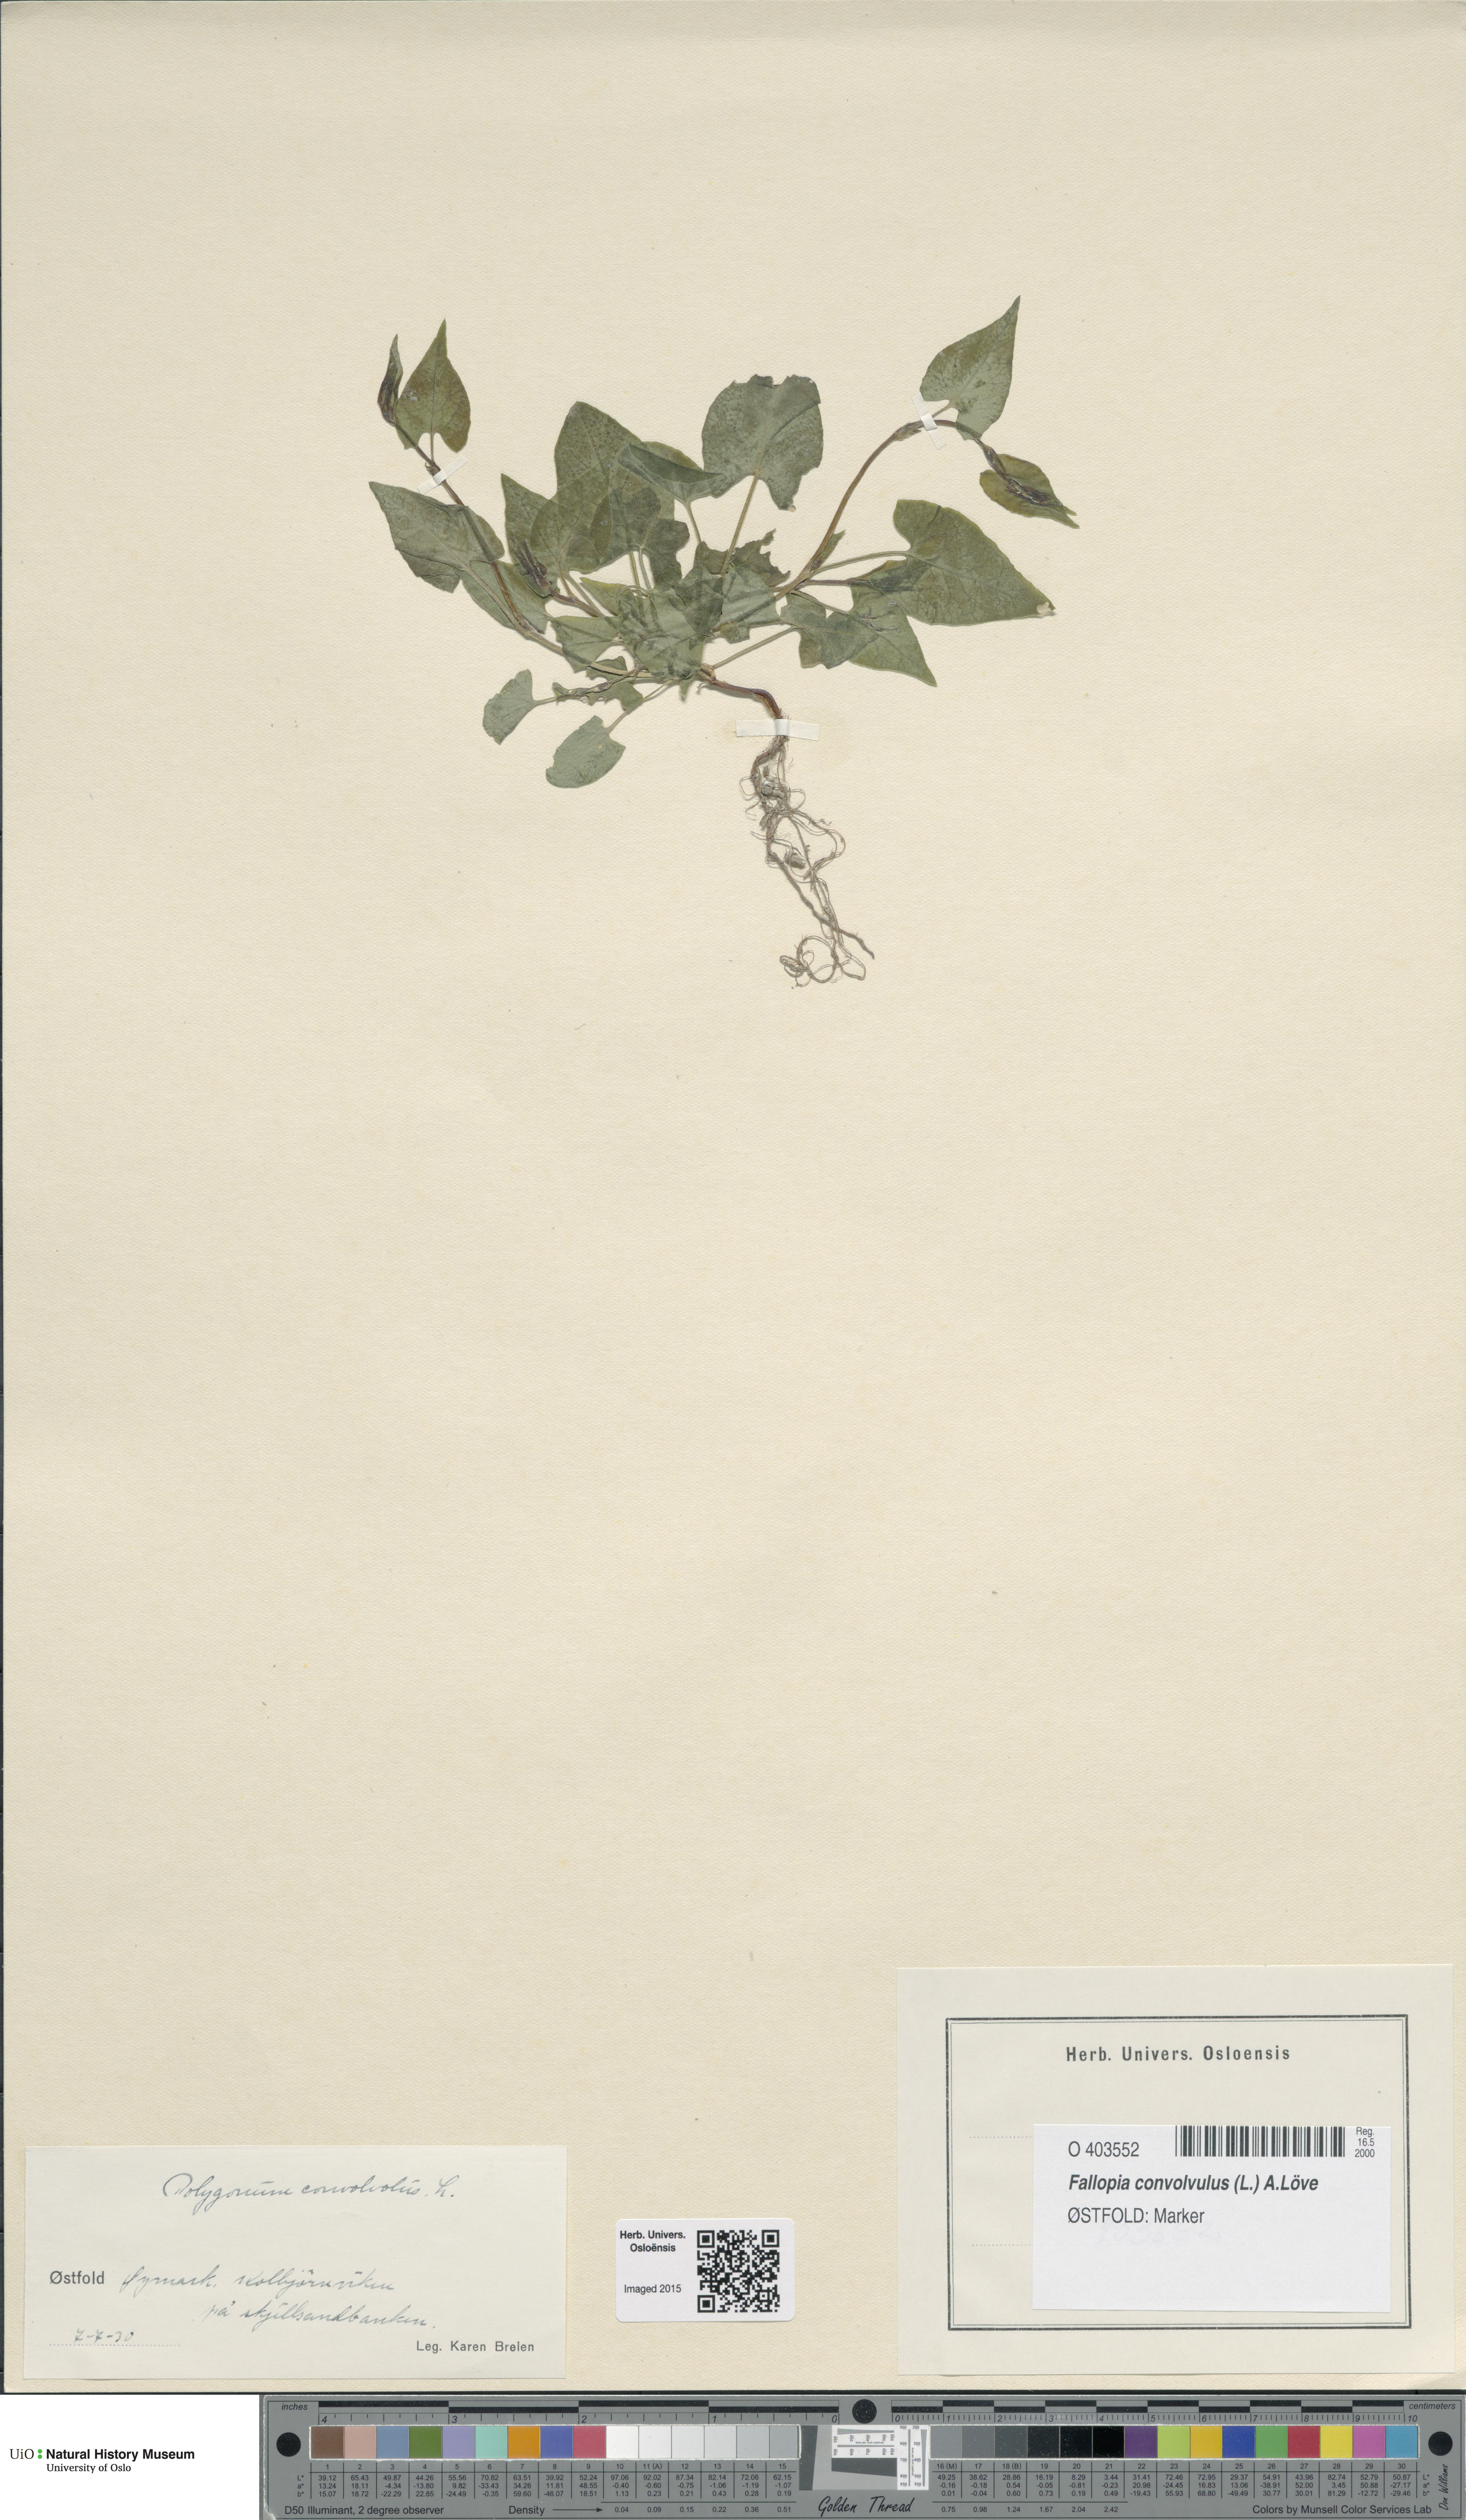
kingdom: Plantae
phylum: Tracheophyta
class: Magnoliopsida
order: Caryophyllales
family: Polygonaceae
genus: Fallopia
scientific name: Fallopia convolvulus
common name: Black bindweed
